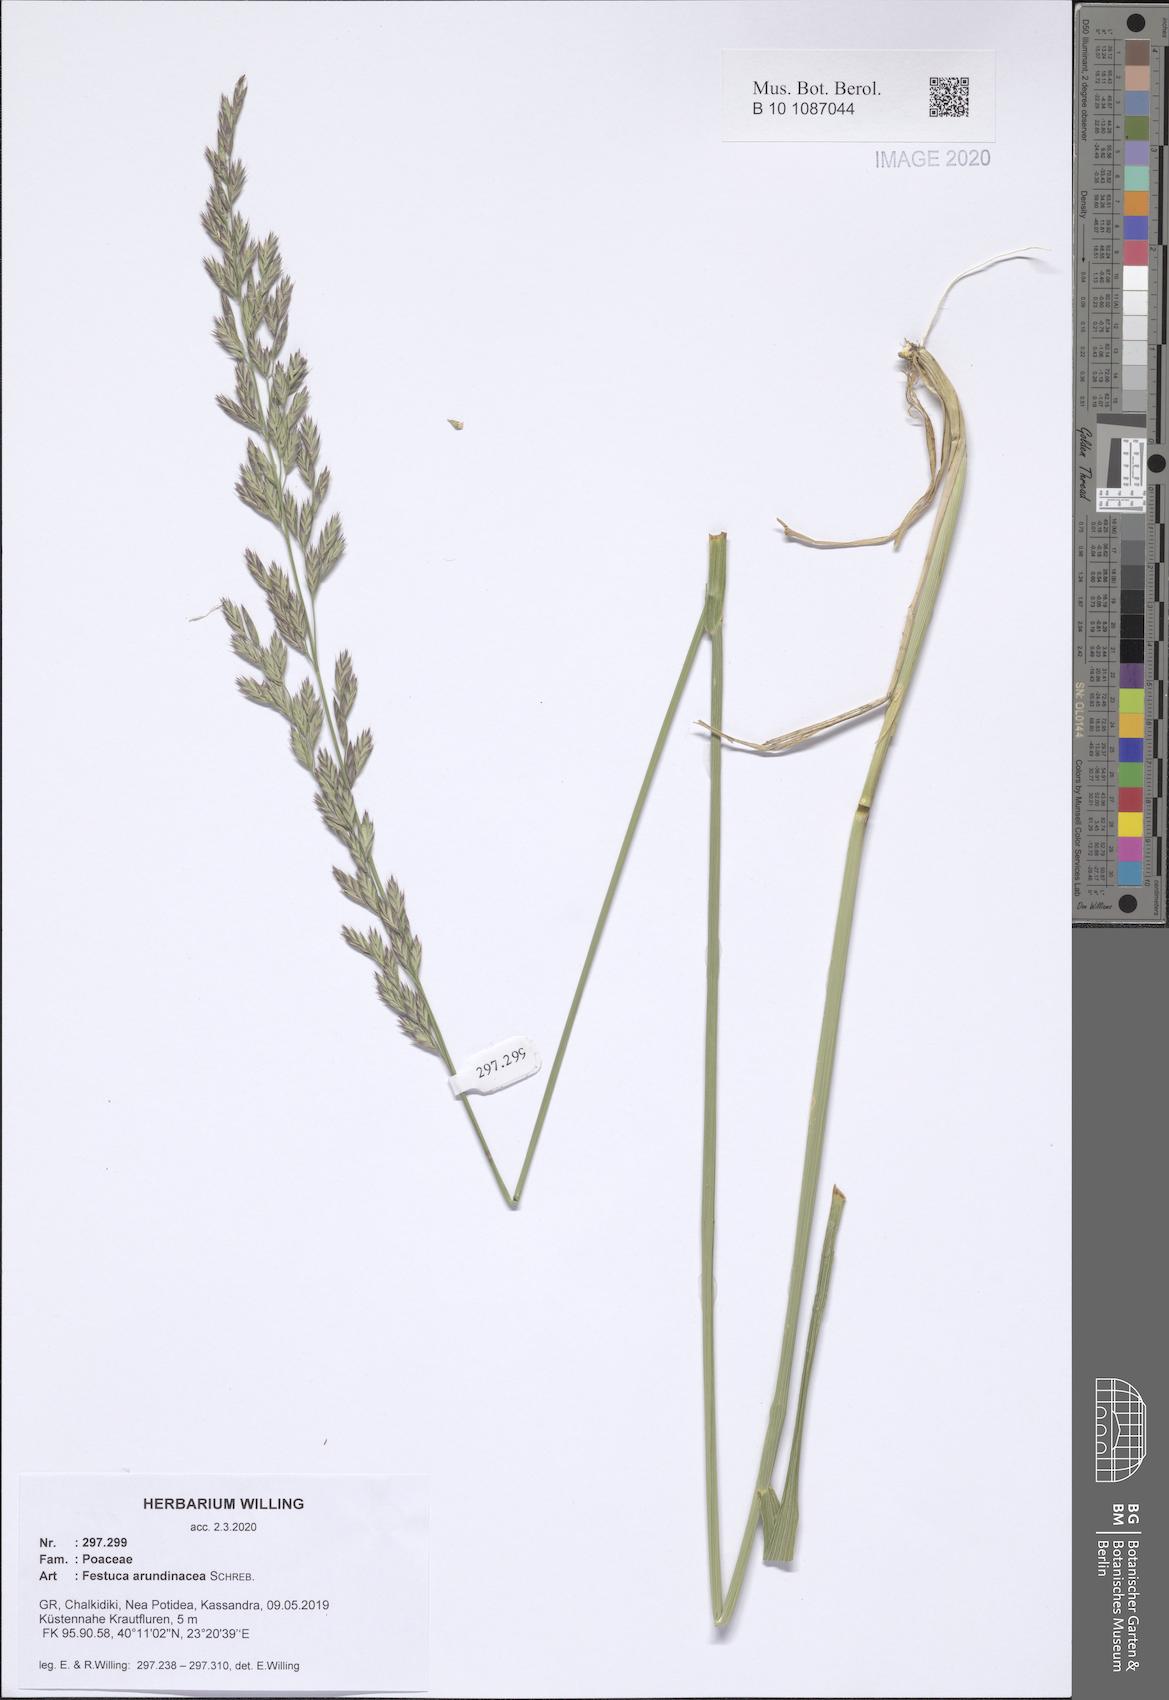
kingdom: Plantae
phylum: Tracheophyta
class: Liliopsida
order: Poales
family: Poaceae
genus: Lolium
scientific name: Lolium arundinaceum
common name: Reed fescue
